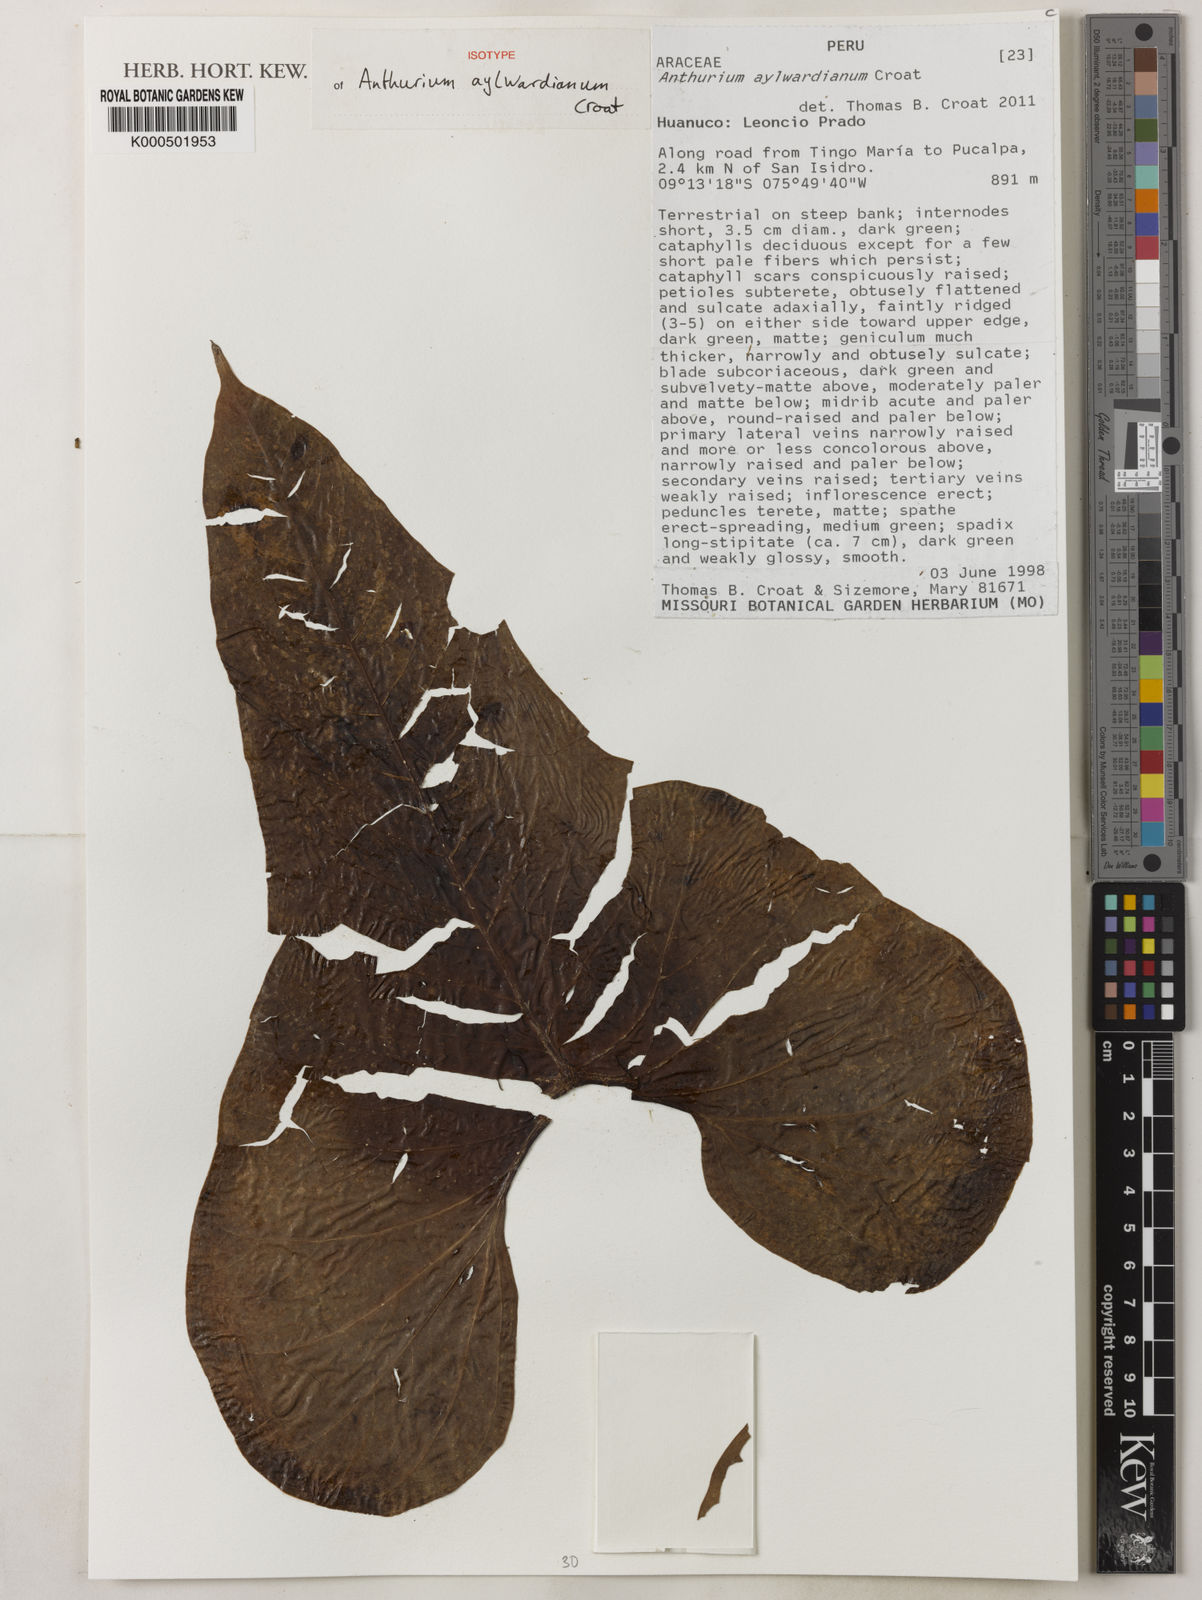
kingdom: Plantae
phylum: Tracheophyta
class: Liliopsida
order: Alismatales
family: Araceae
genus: Anthurium
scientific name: Anthurium aylwardianum
